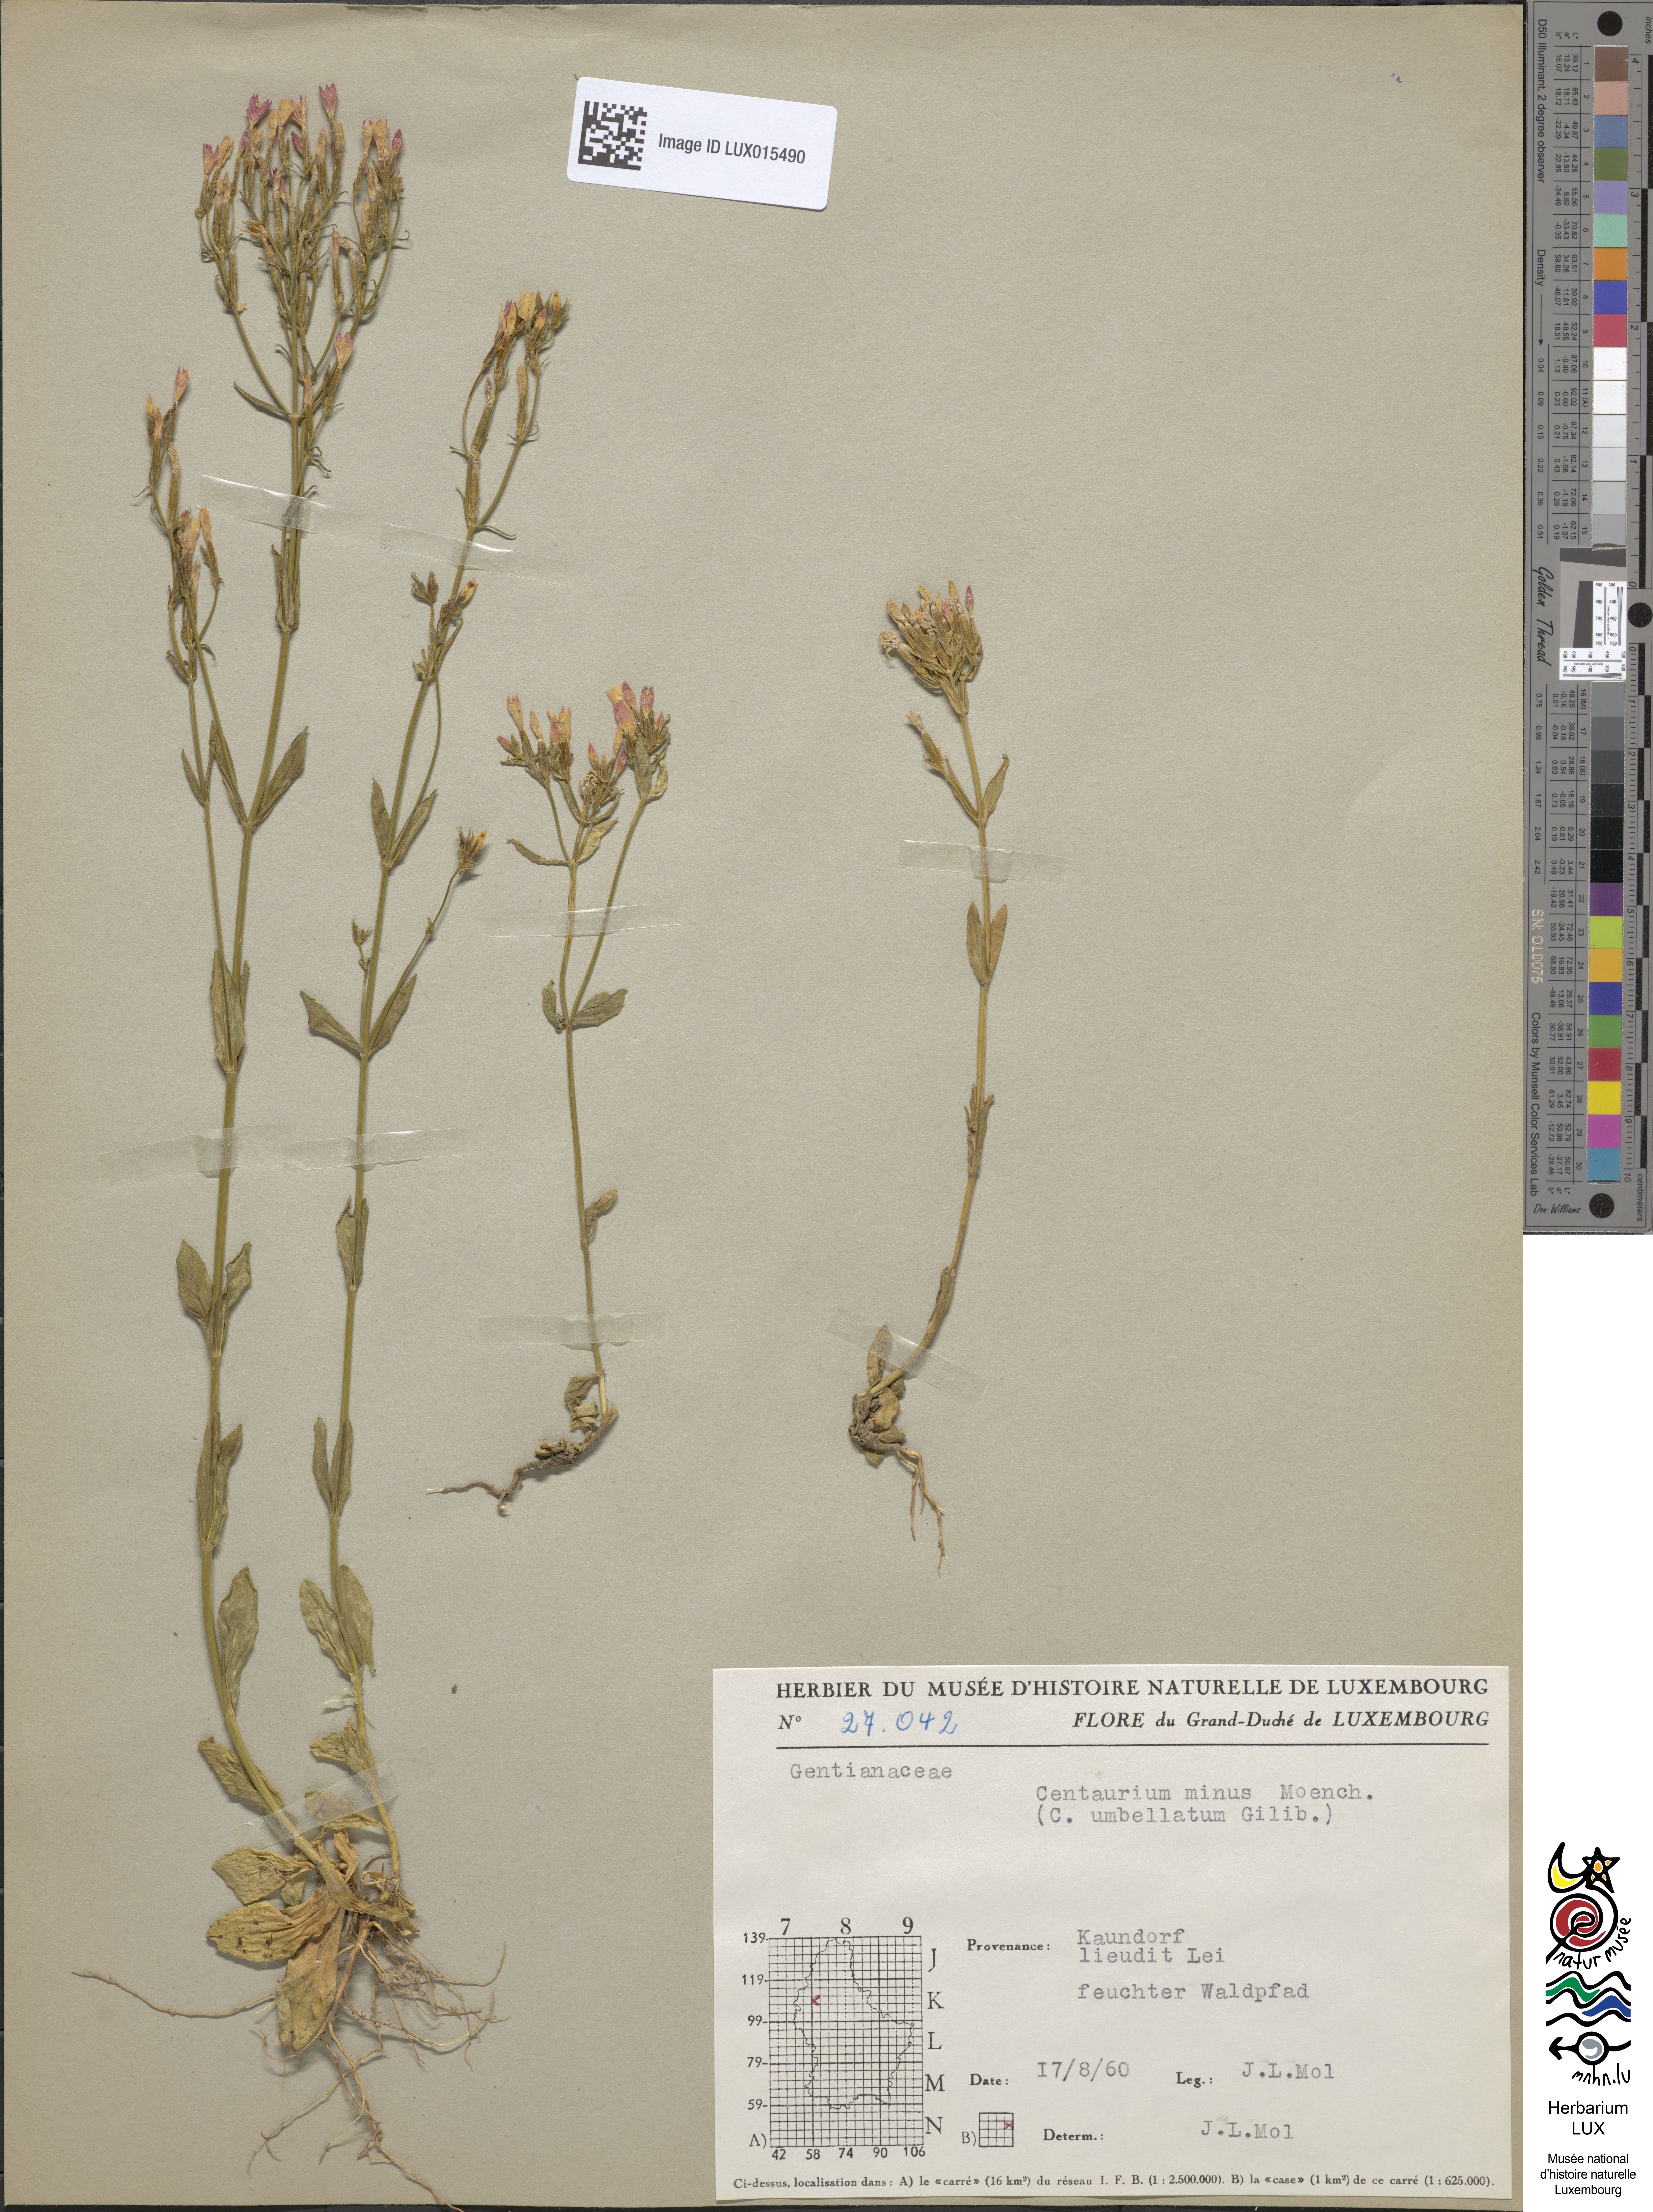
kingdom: Plantae
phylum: Tracheophyta
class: Magnoliopsida
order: Gentianales
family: Gentianaceae
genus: Centaurium
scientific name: Centaurium erythraea
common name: Common centaury
